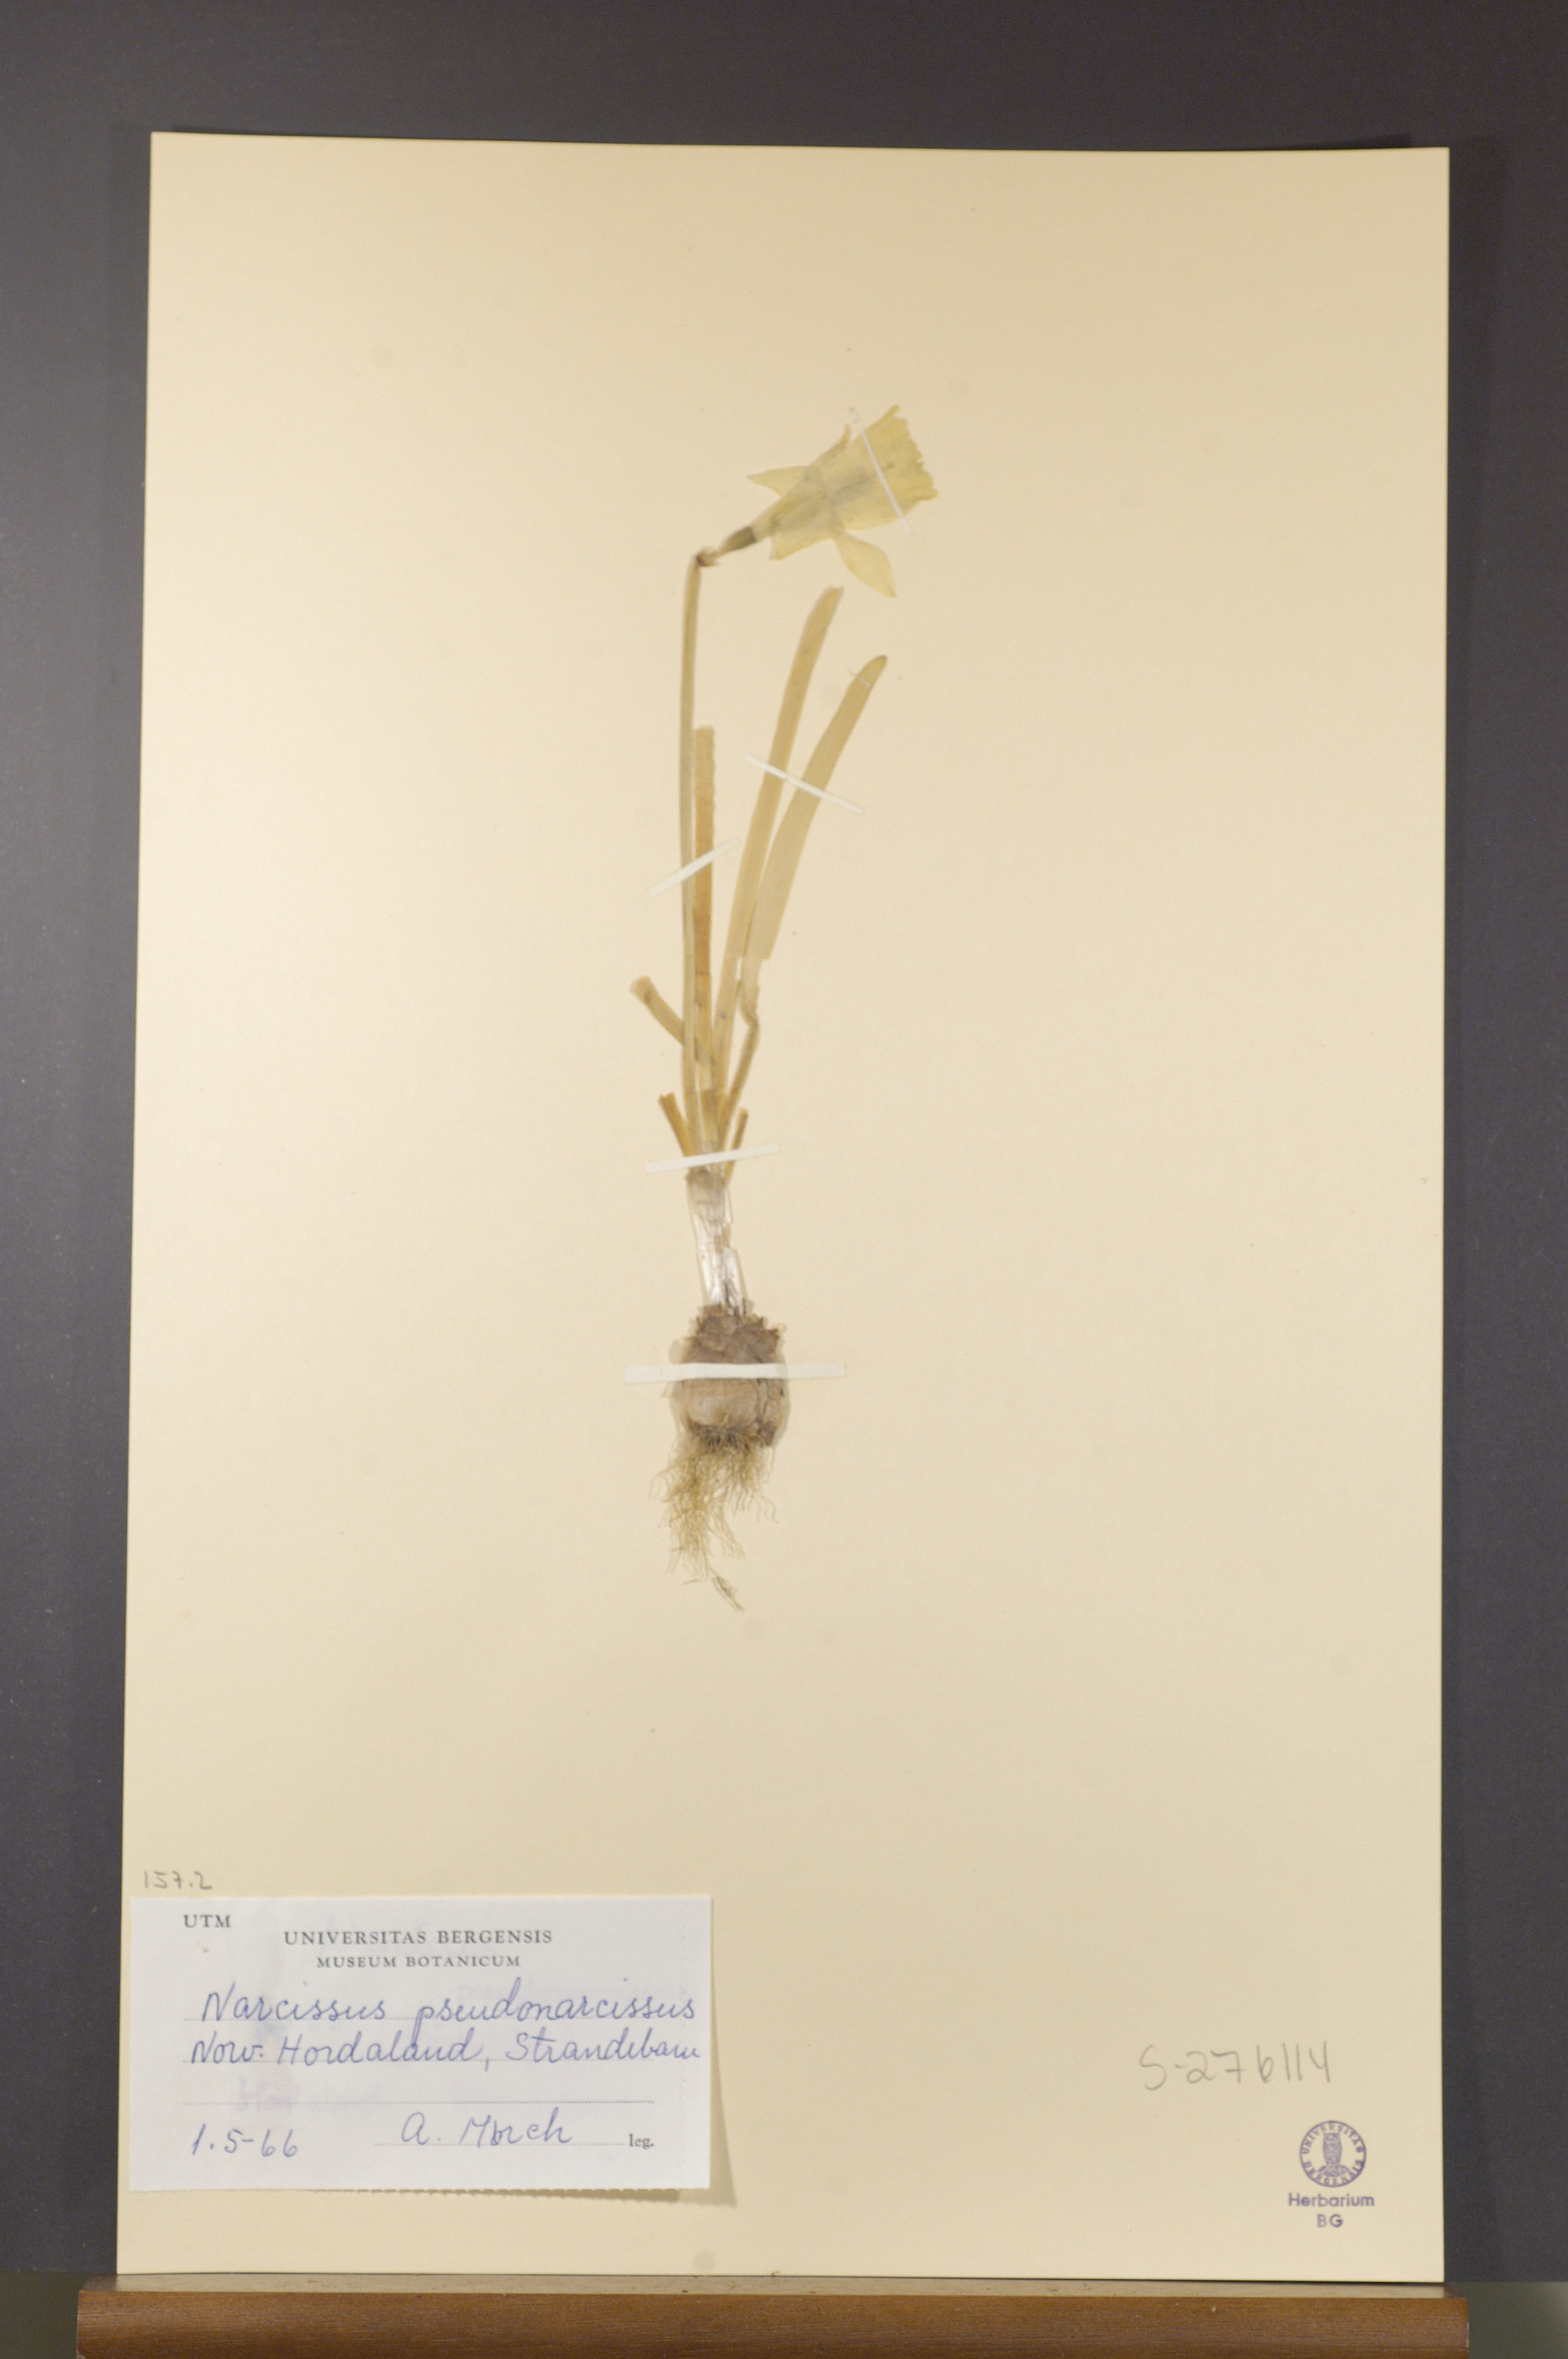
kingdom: Plantae
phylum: Tracheophyta
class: Liliopsida
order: Asparagales
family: Amaryllidaceae
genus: Narcissus
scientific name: Narcissus pseudonarcissus
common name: Daffodil
